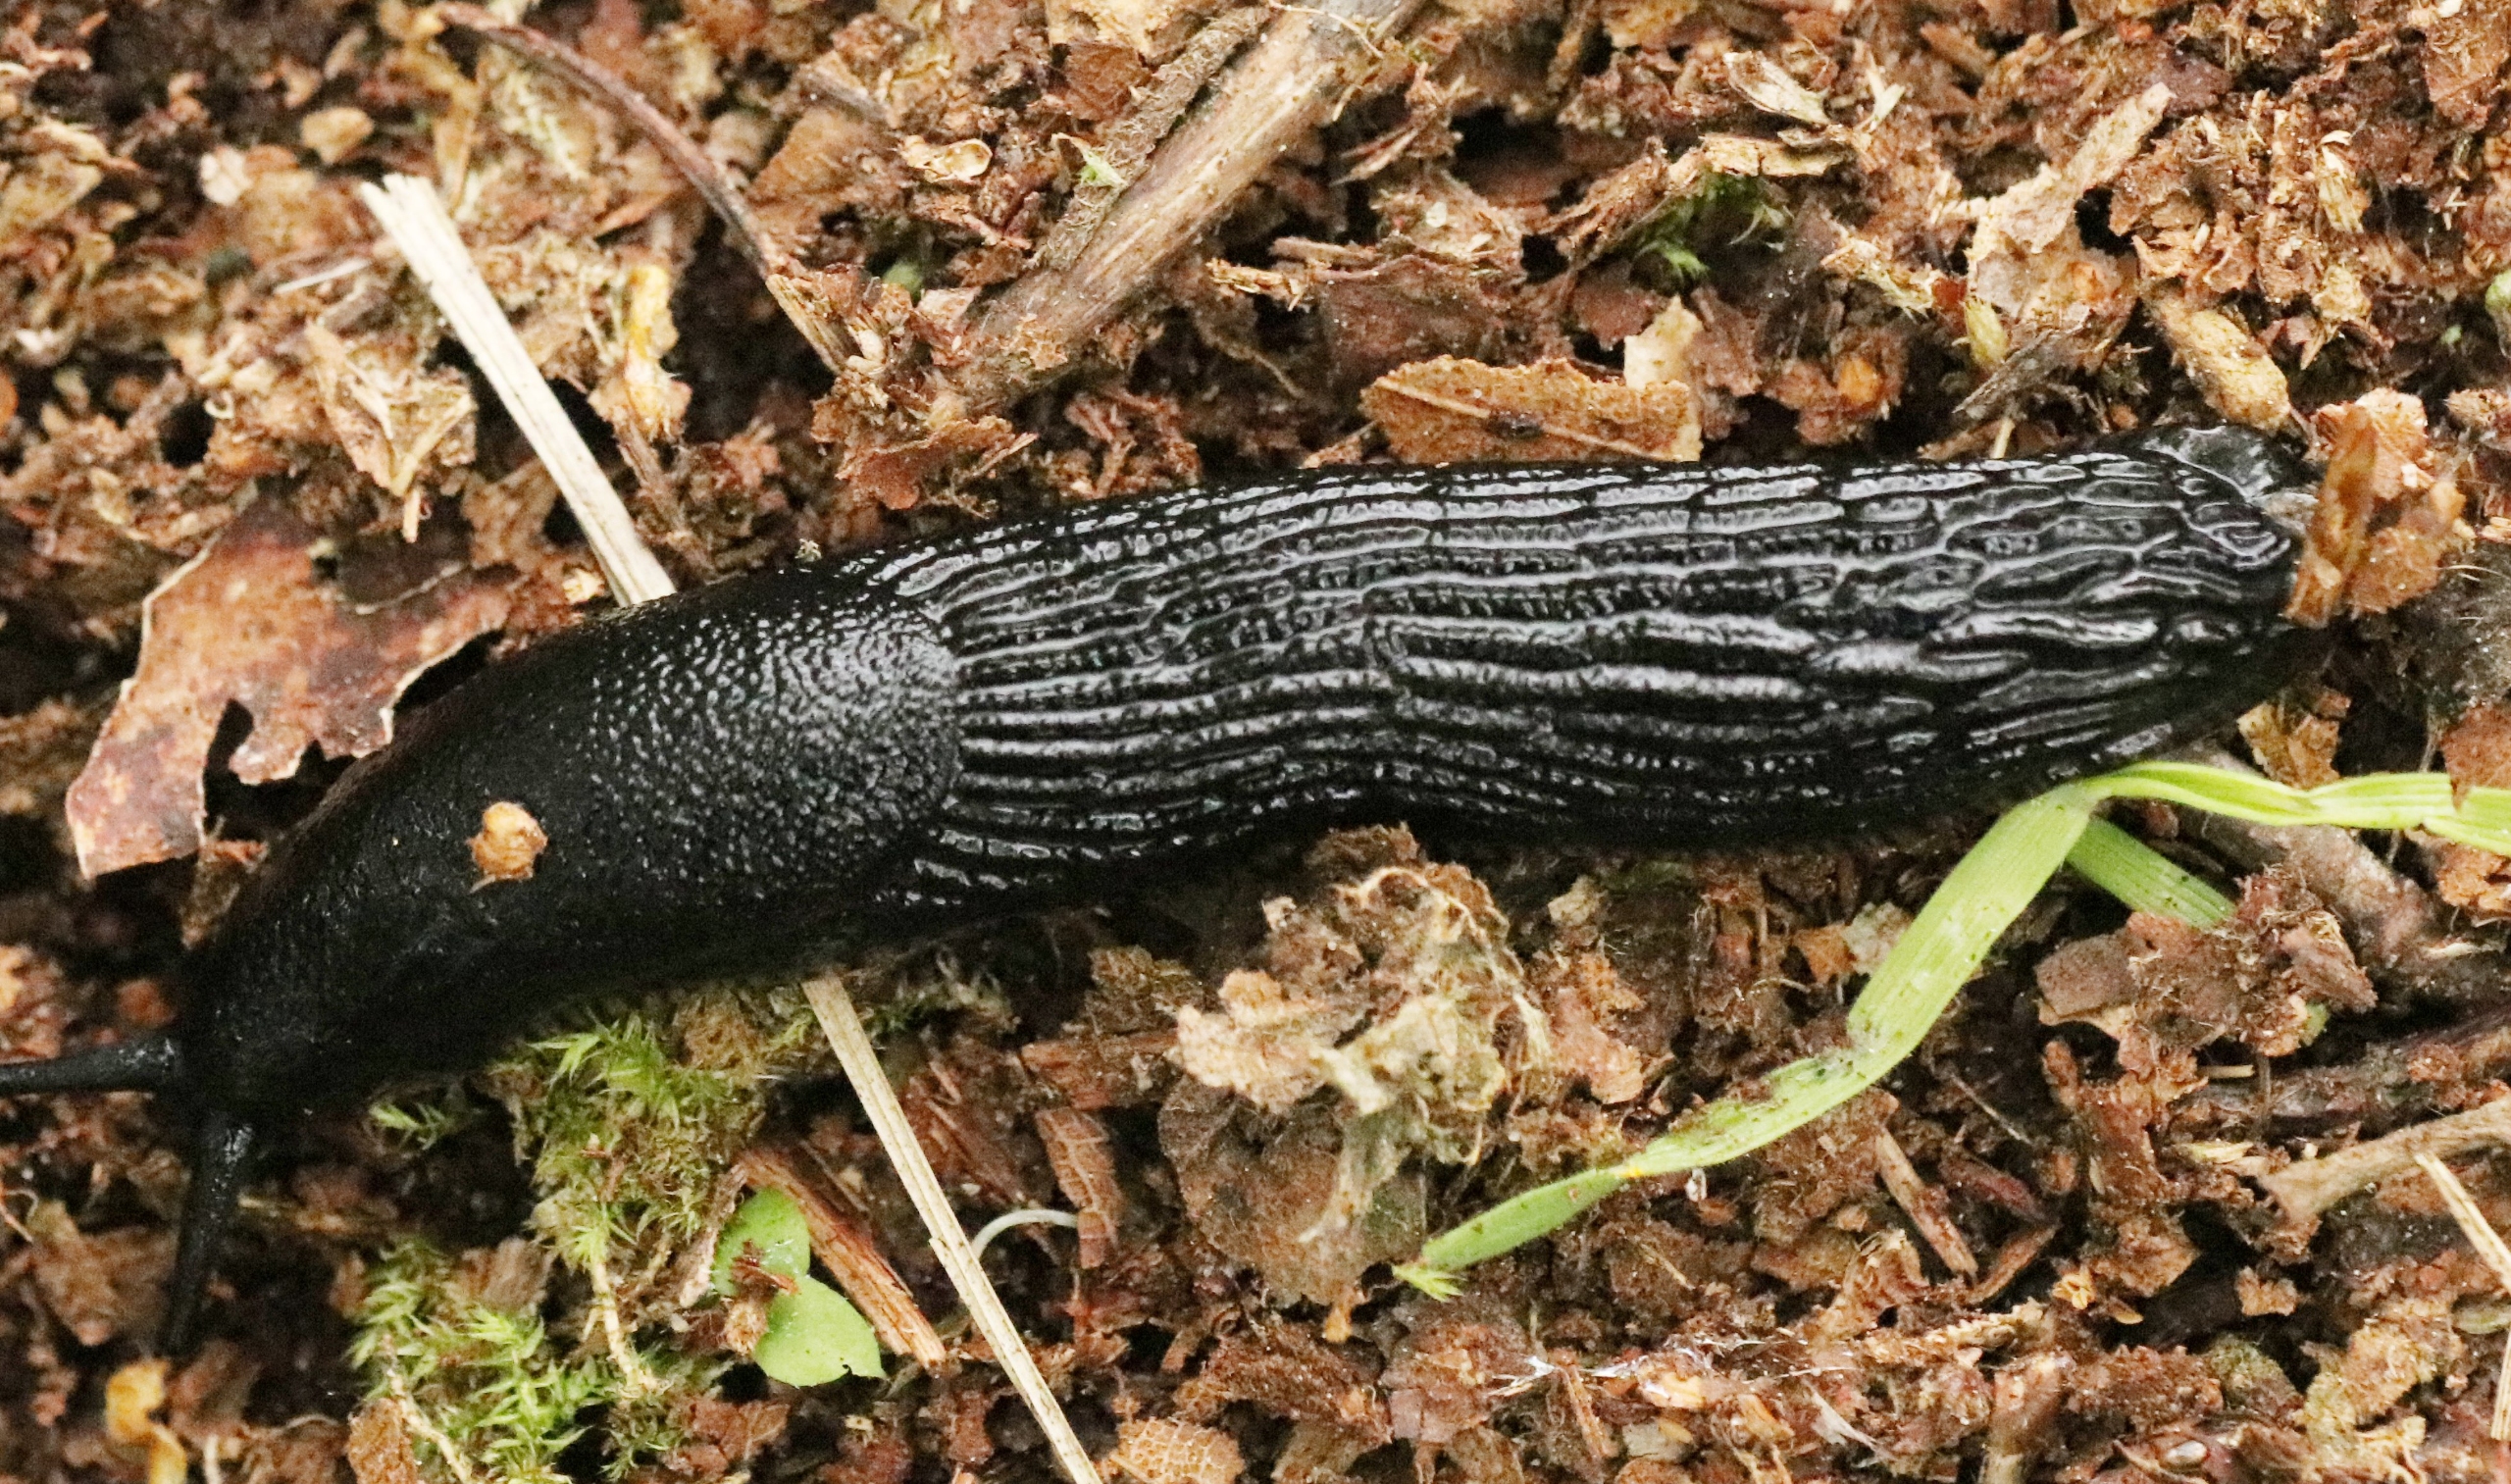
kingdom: Animalia
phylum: Mollusca
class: Gastropoda
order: Stylommatophora
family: Arionidae
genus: Arion
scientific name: Arion ater
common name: Sort skovsnegl
